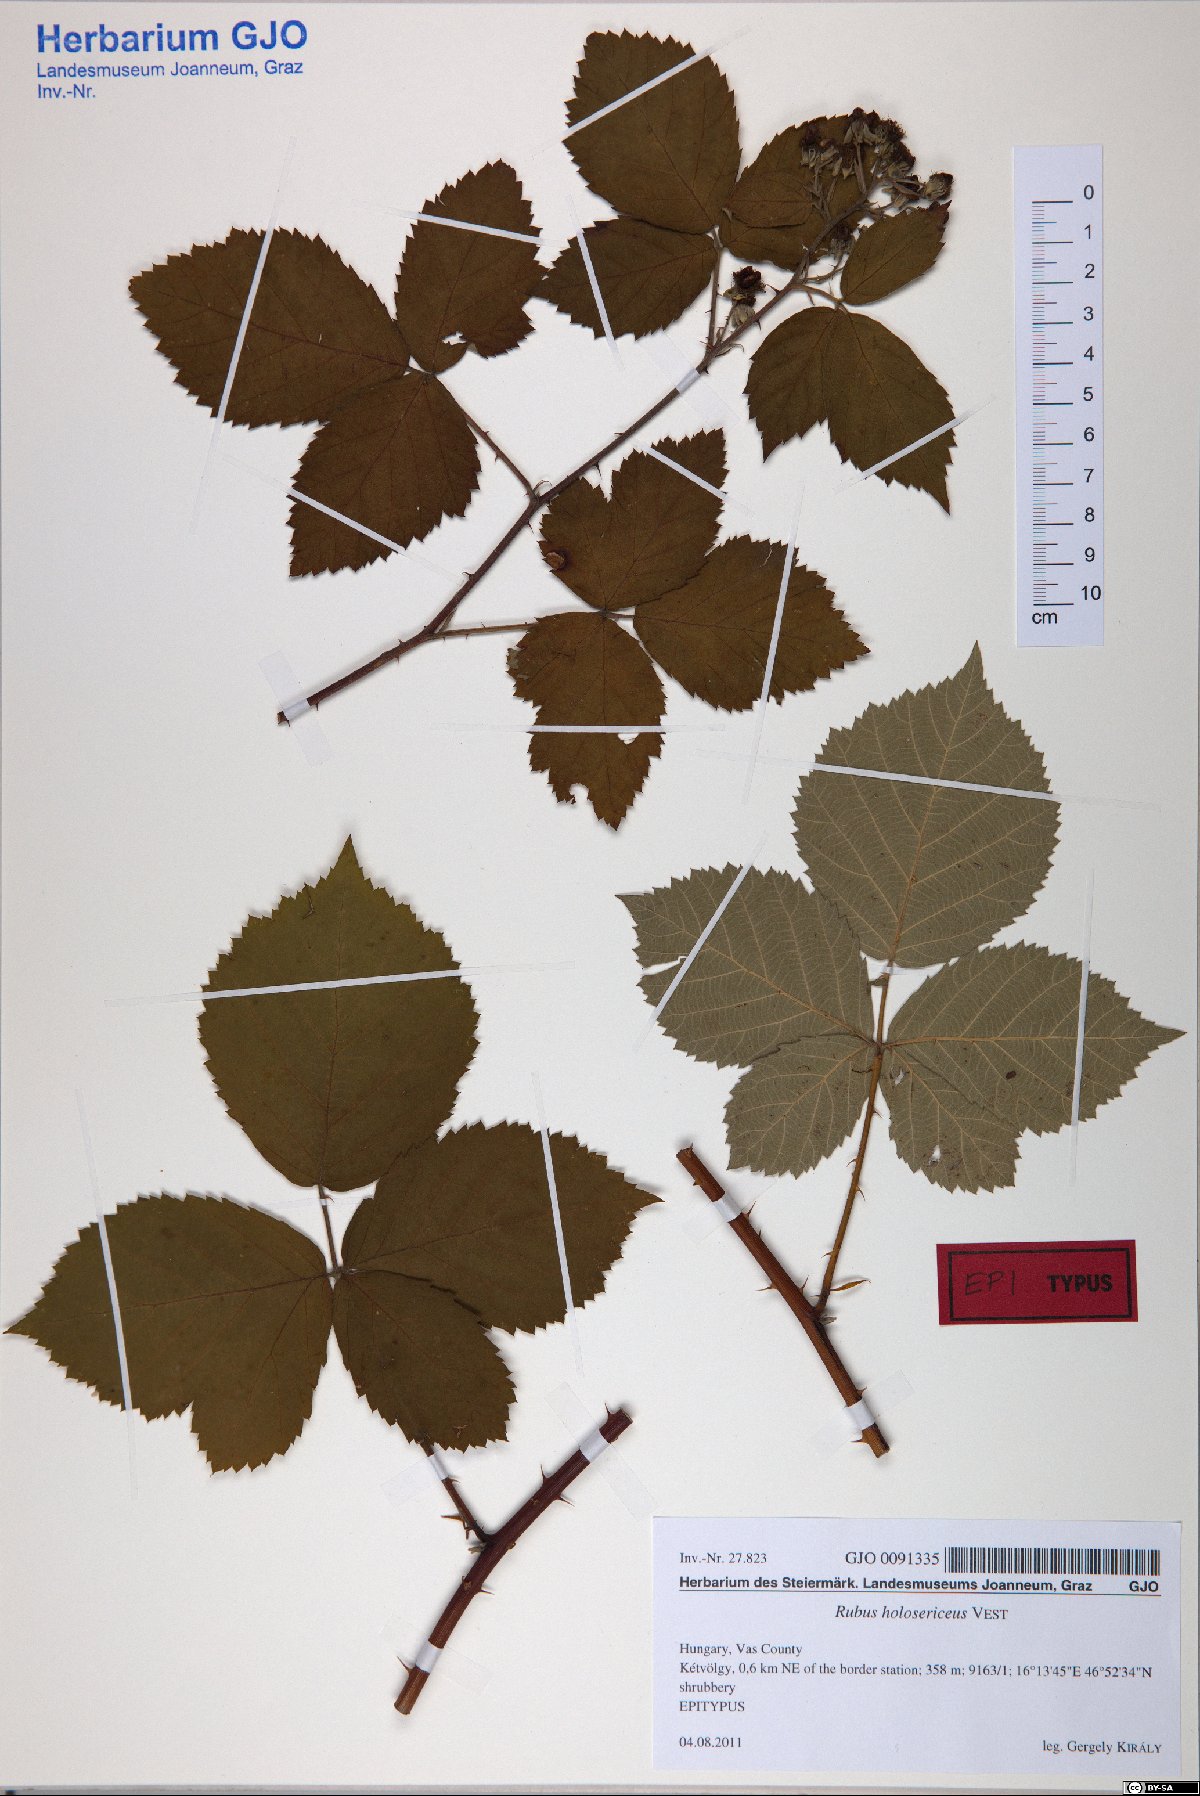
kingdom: Plantae
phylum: Tracheophyta
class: Magnoliopsida
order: Rosales
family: Rosaceae
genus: Rubus
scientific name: Rubus holosericeus
